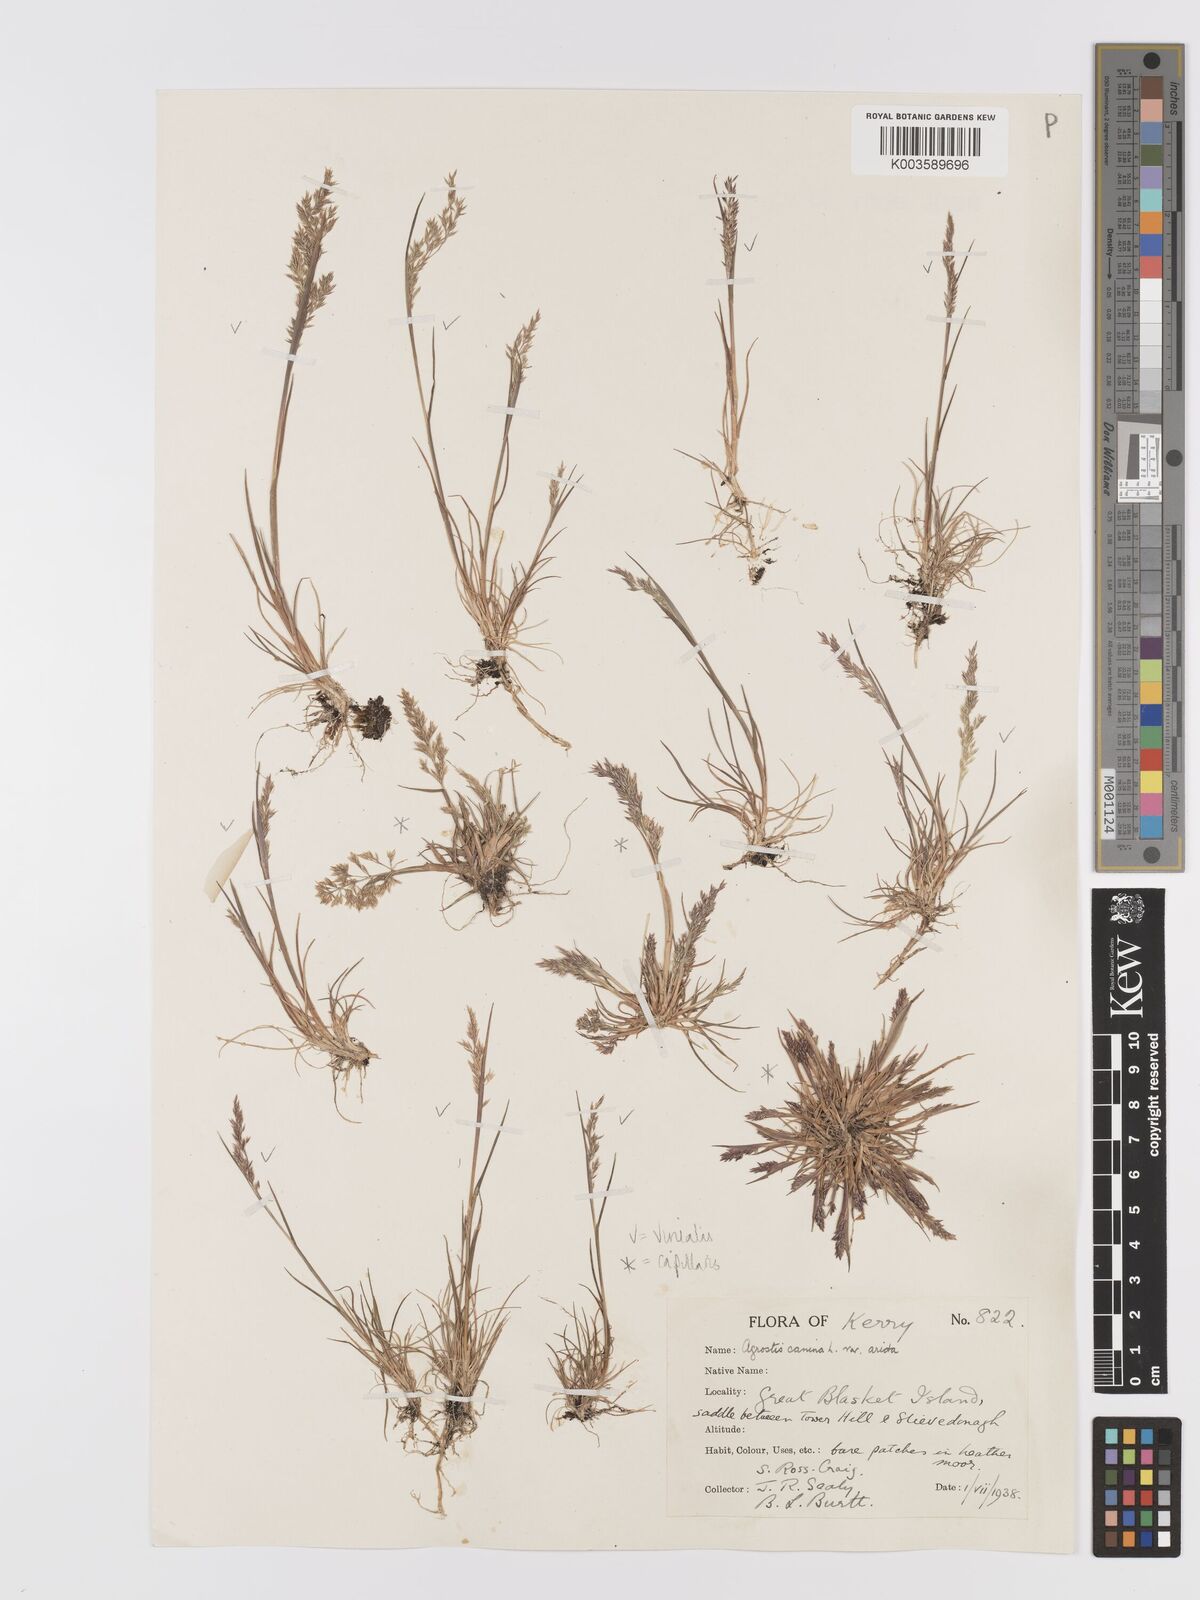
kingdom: Plantae
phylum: Tracheophyta
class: Liliopsida
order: Poales
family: Poaceae
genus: Agrostis
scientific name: Agrostis
